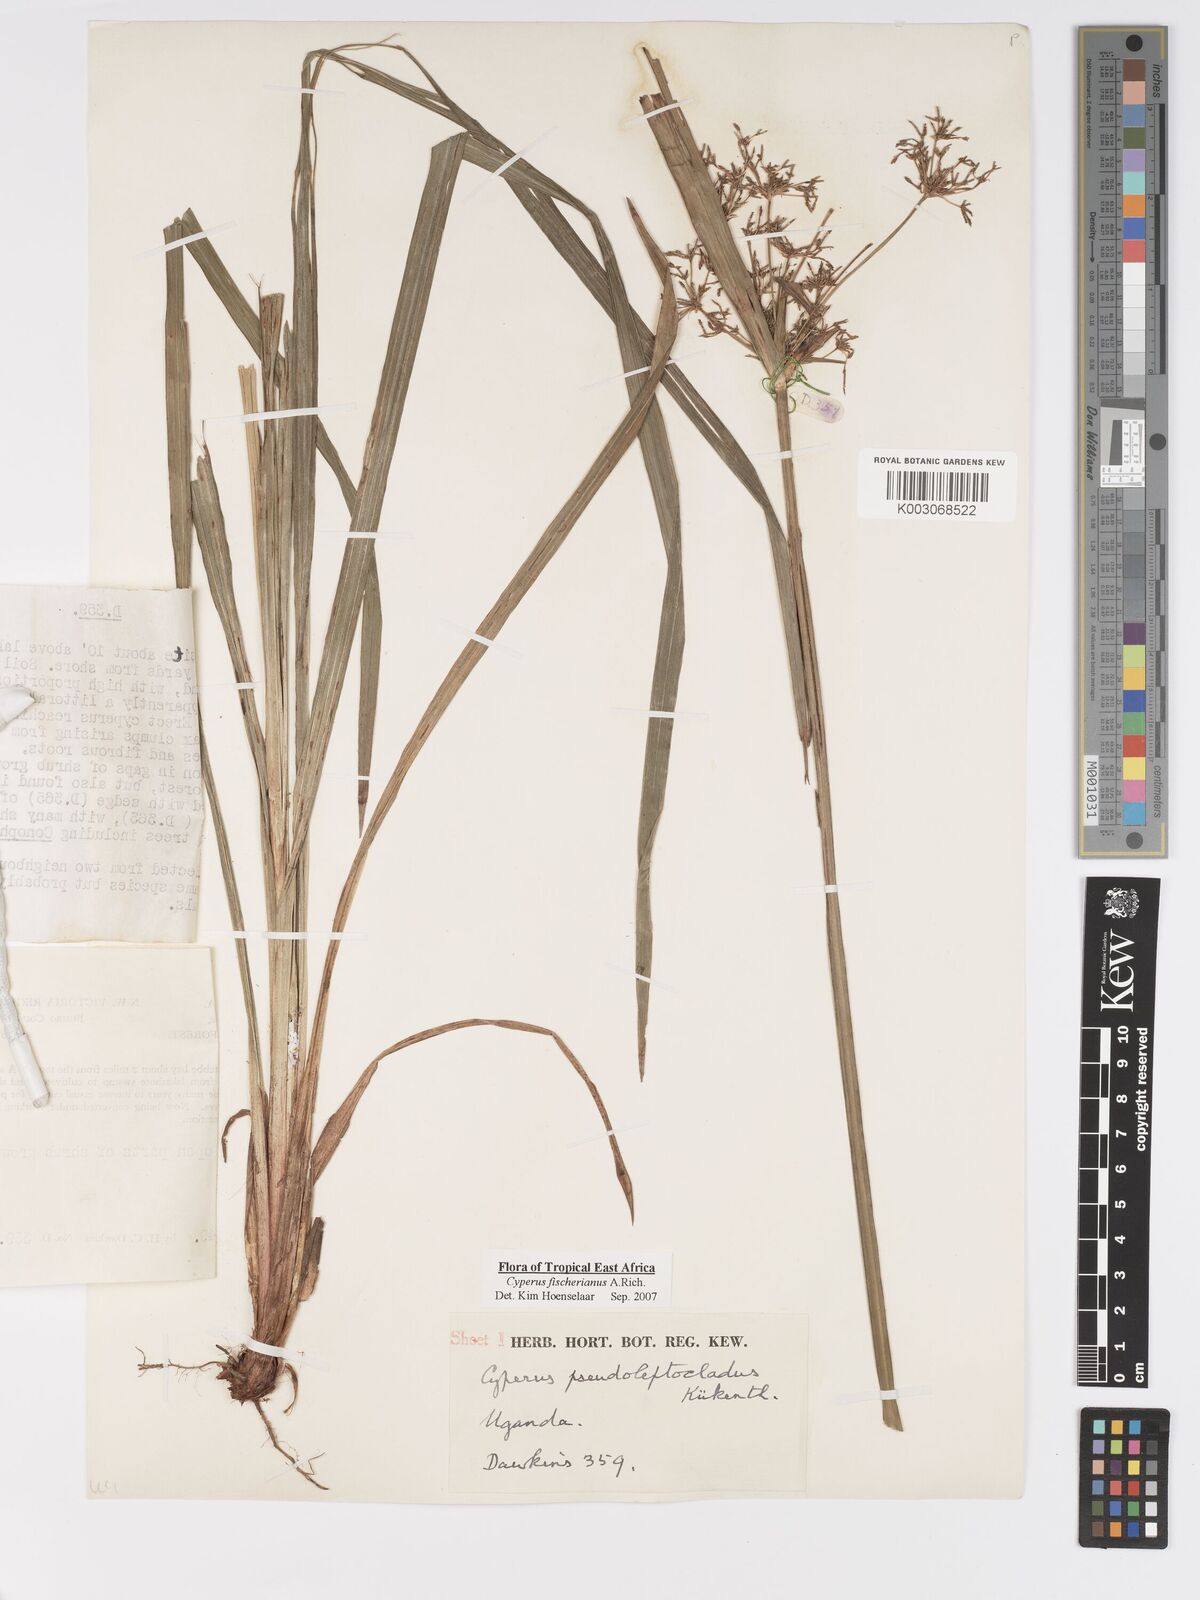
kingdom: Plantae
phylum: Tracheophyta
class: Liliopsida
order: Poales
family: Cyperaceae
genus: Cyperus
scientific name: Cyperus fischerianus
